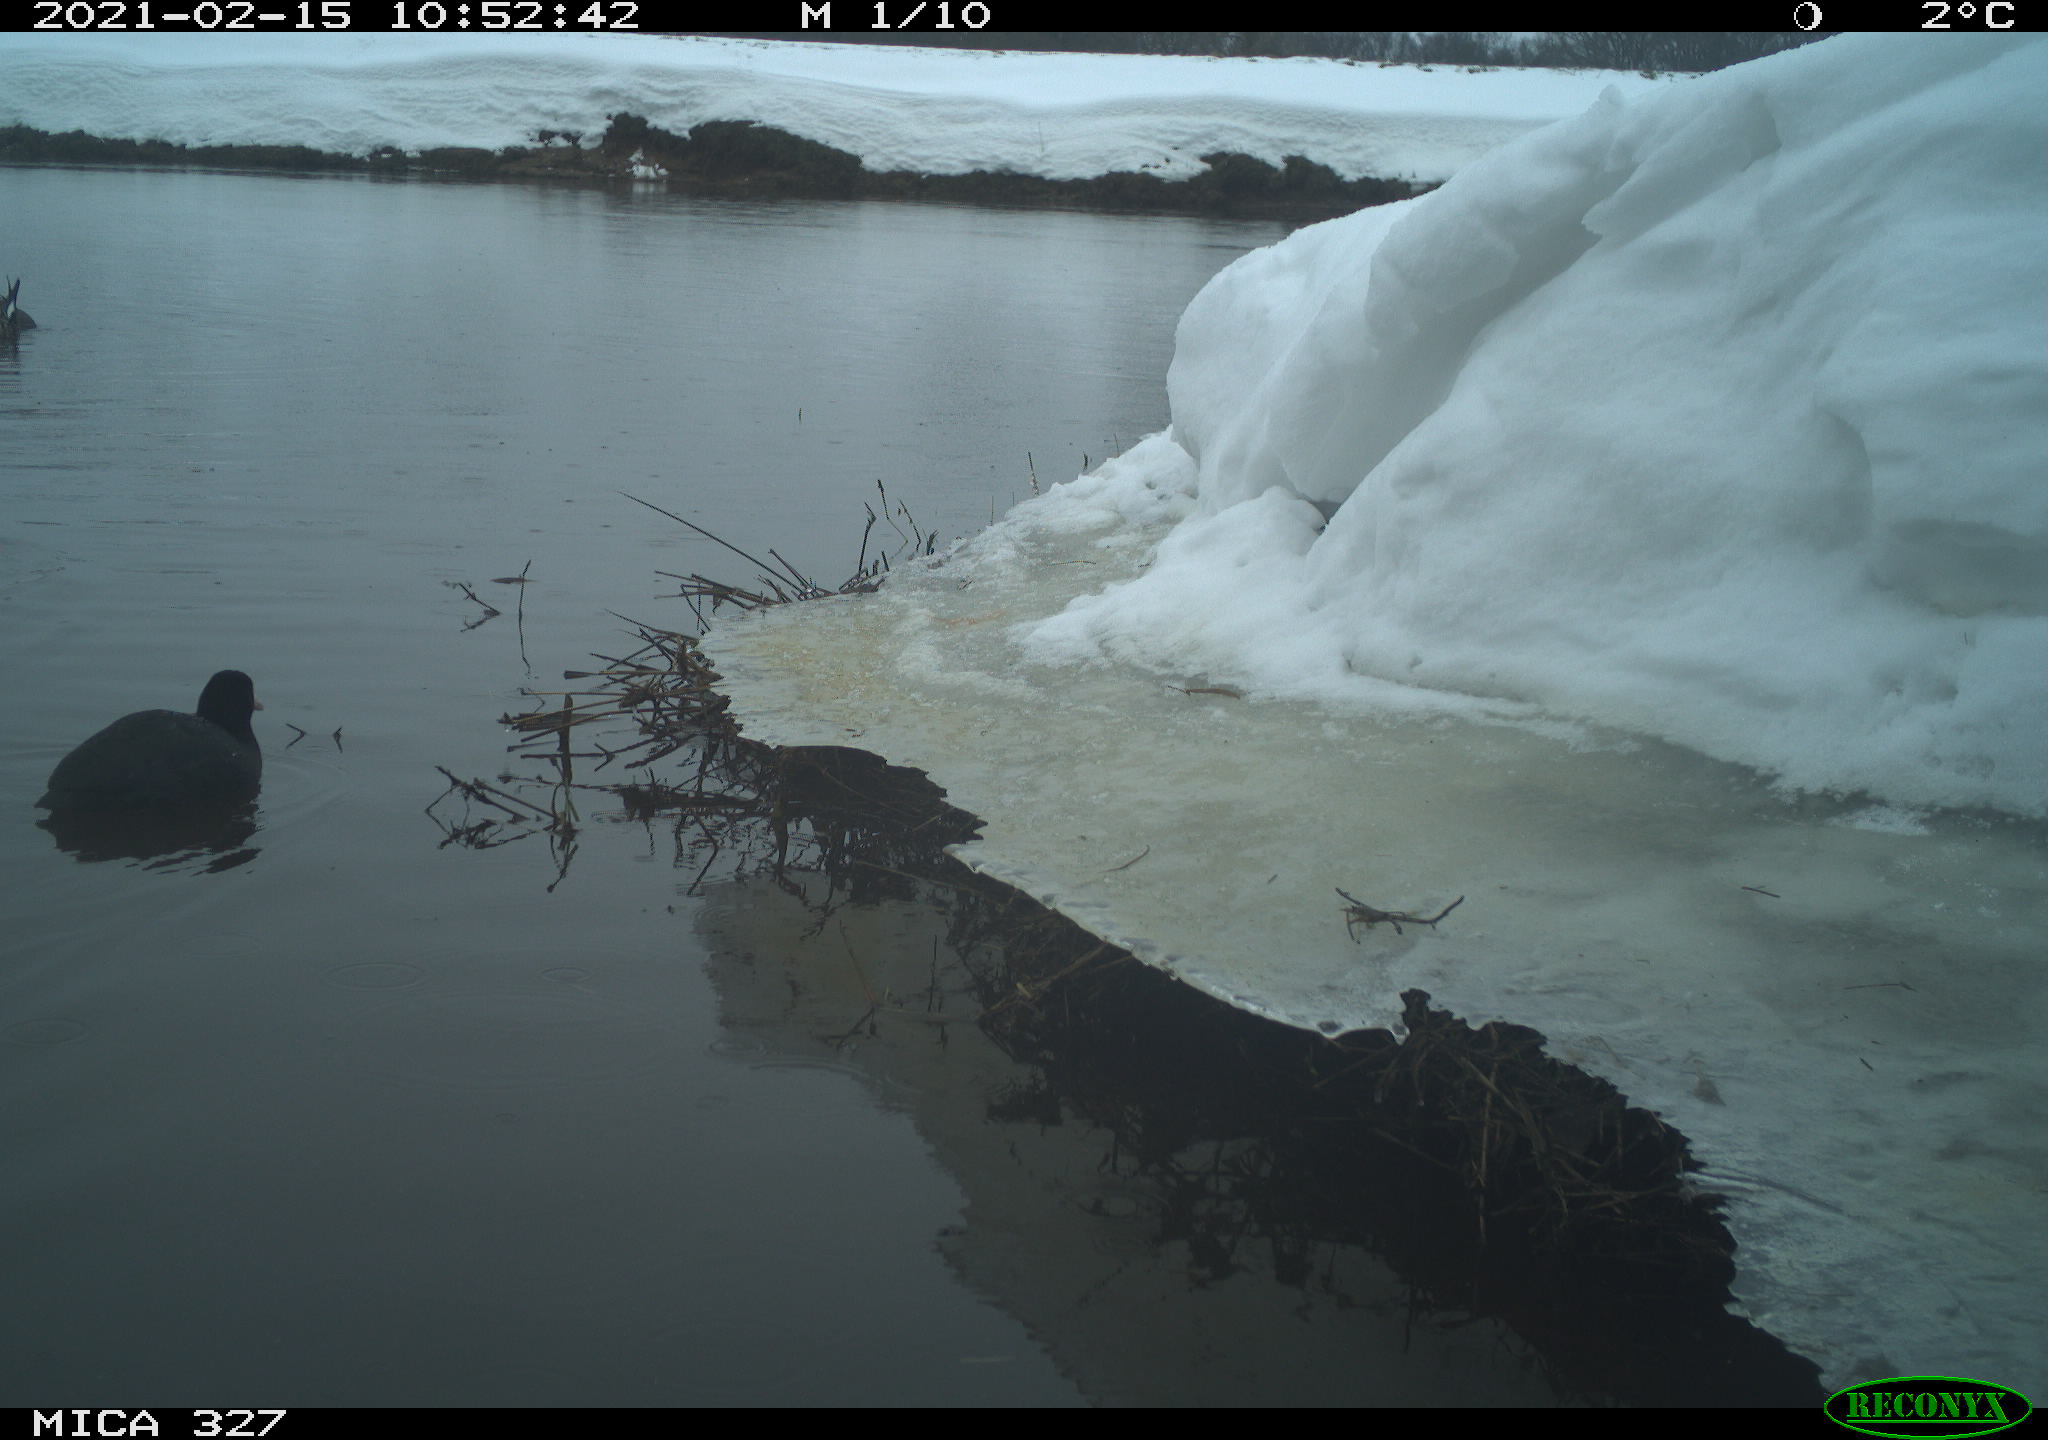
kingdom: Animalia
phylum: Chordata
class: Aves
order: Anseriformes
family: Anatidae
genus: Anas
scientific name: Anas
